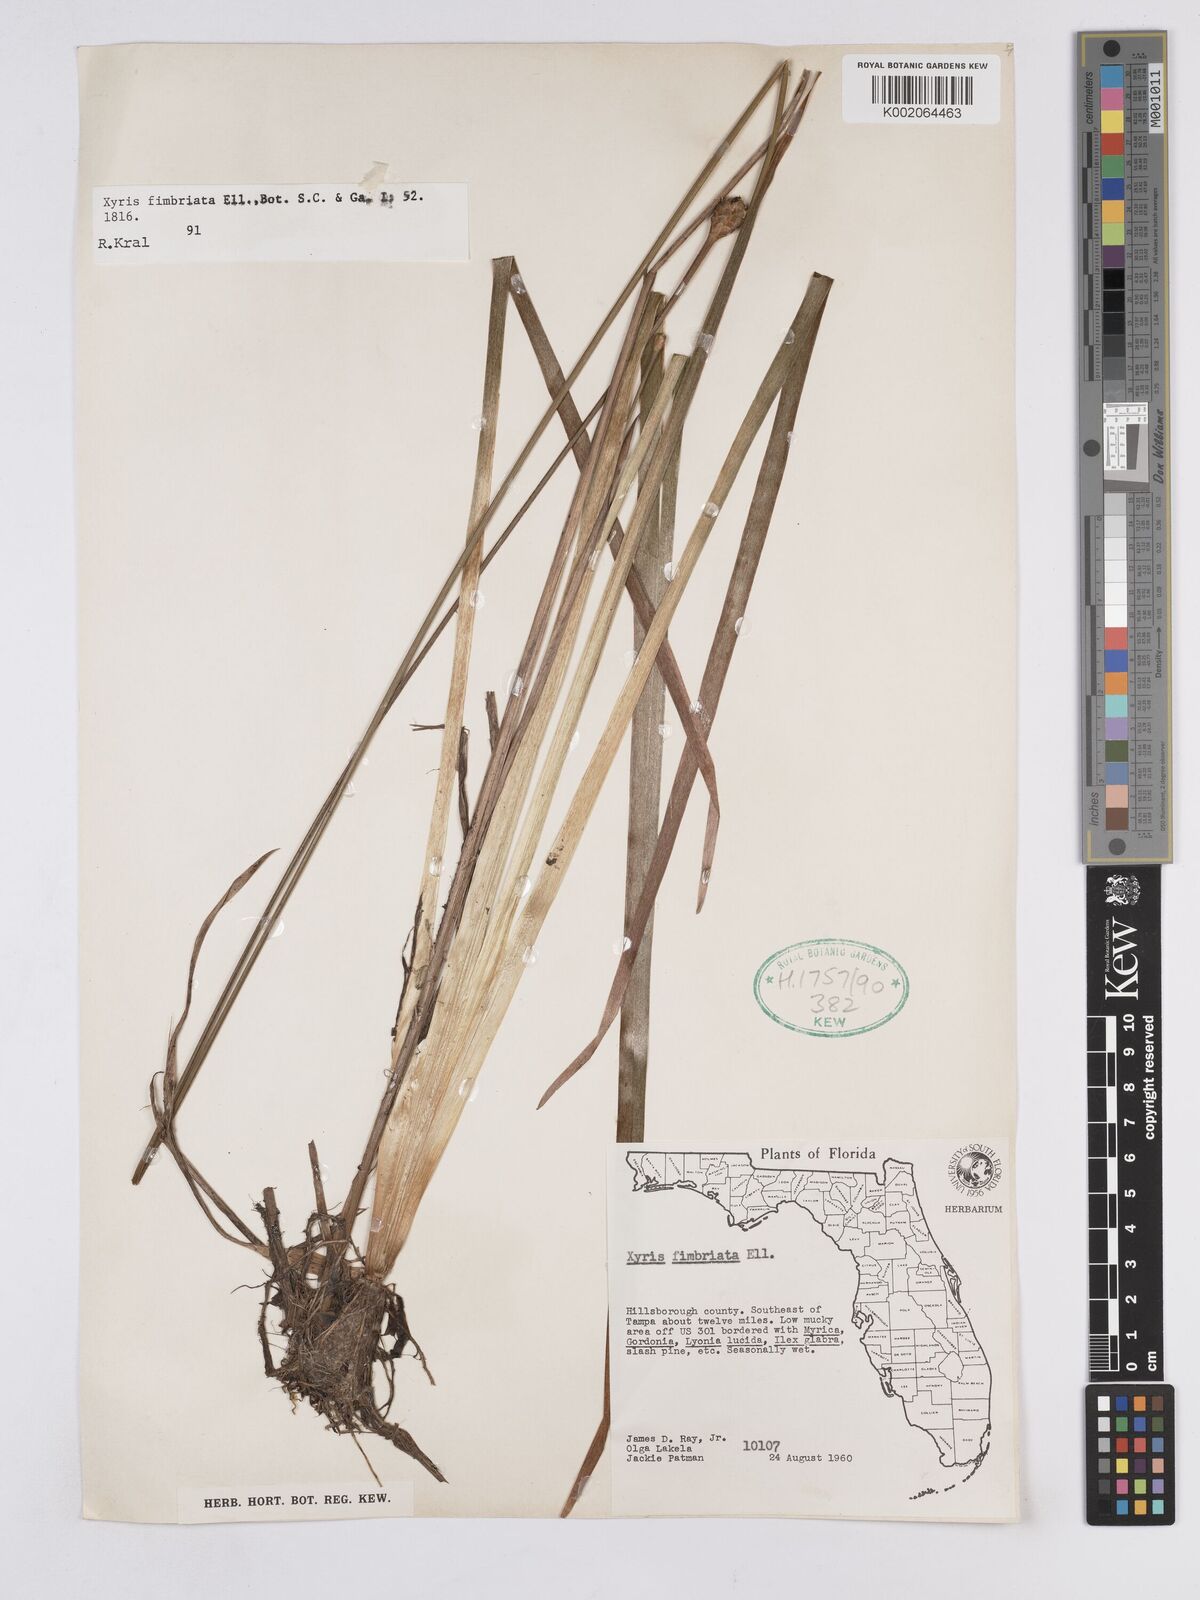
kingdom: Plantae
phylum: Tracheophyta
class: Liliopsida
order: Poales
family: Xyridaceae
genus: Xyris
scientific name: Xyris fimbriata
